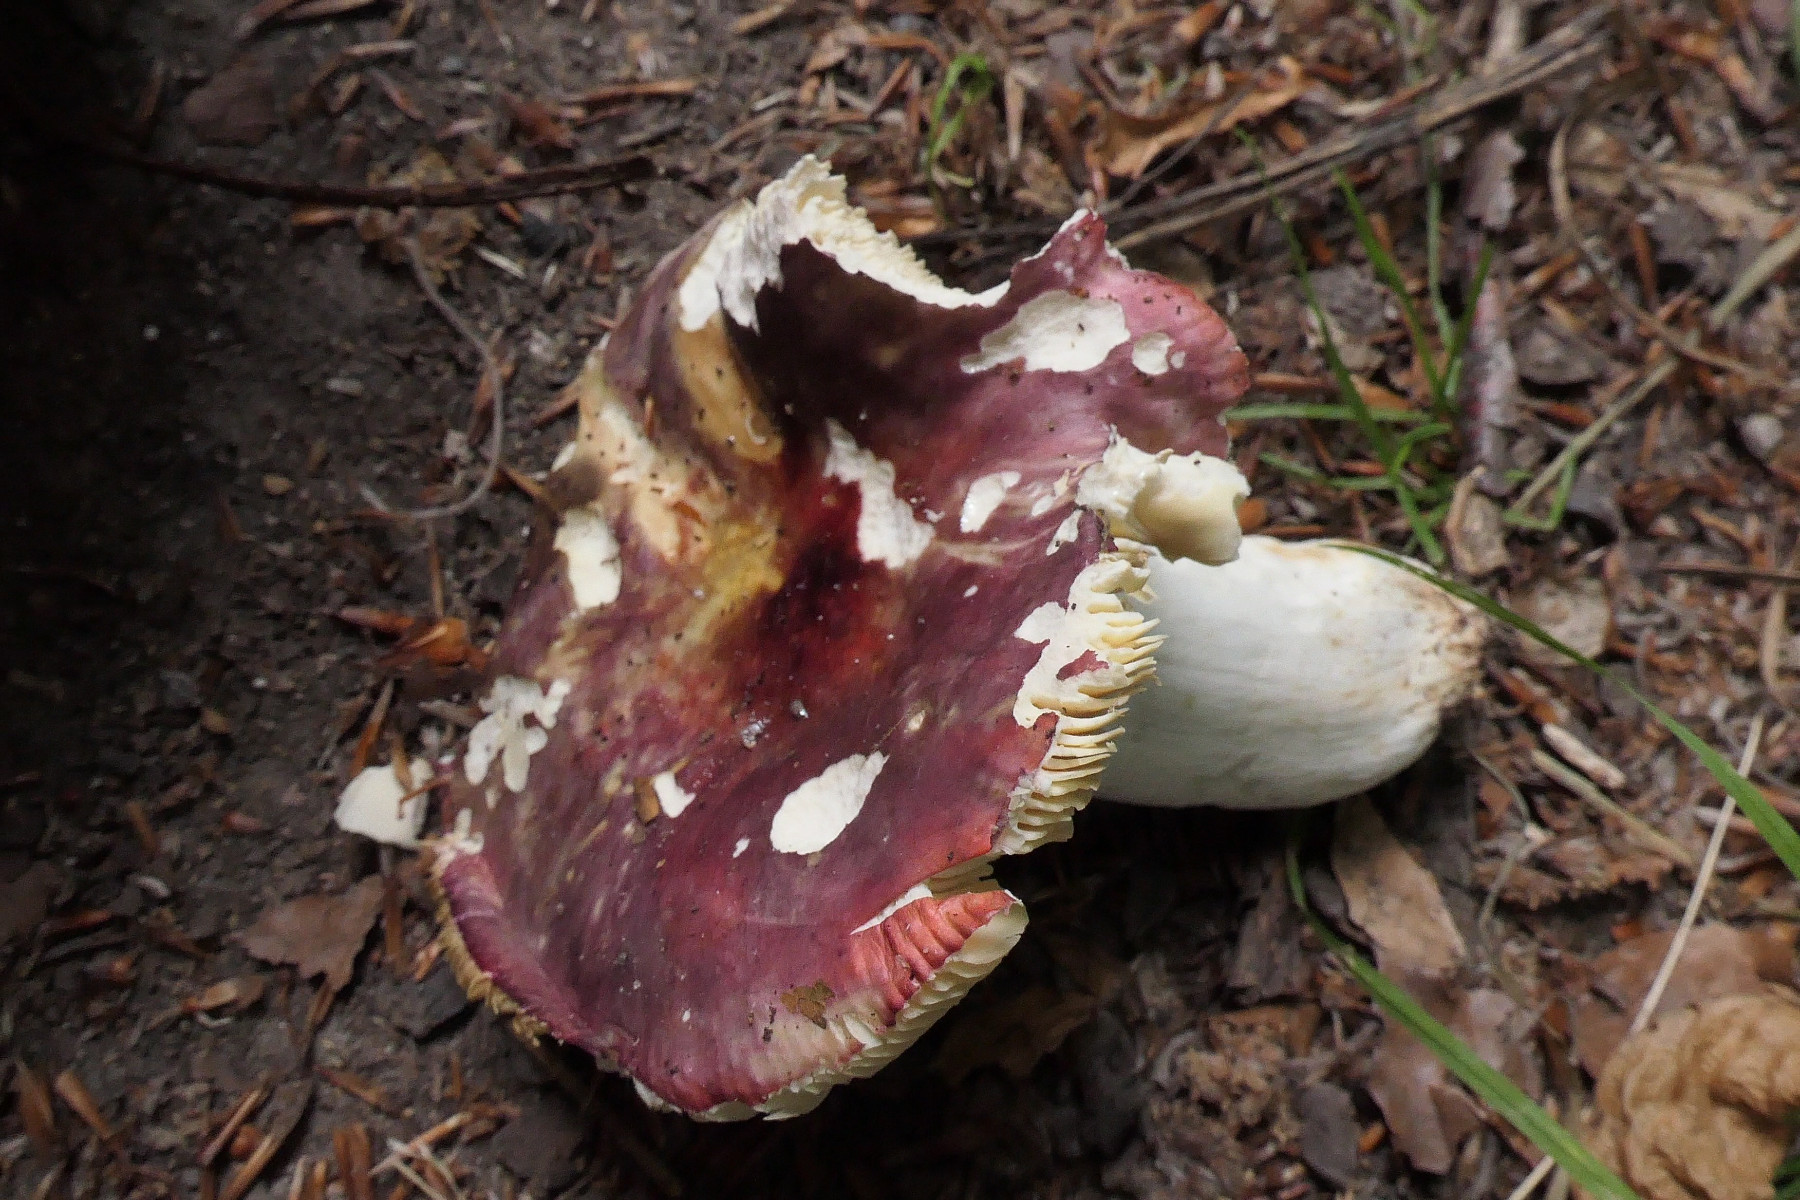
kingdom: Fungi
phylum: Basidiomycota
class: Agaricomycetes
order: Russulales
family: Russulaceae
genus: Russula
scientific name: Russula romellii
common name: romells skørhat
